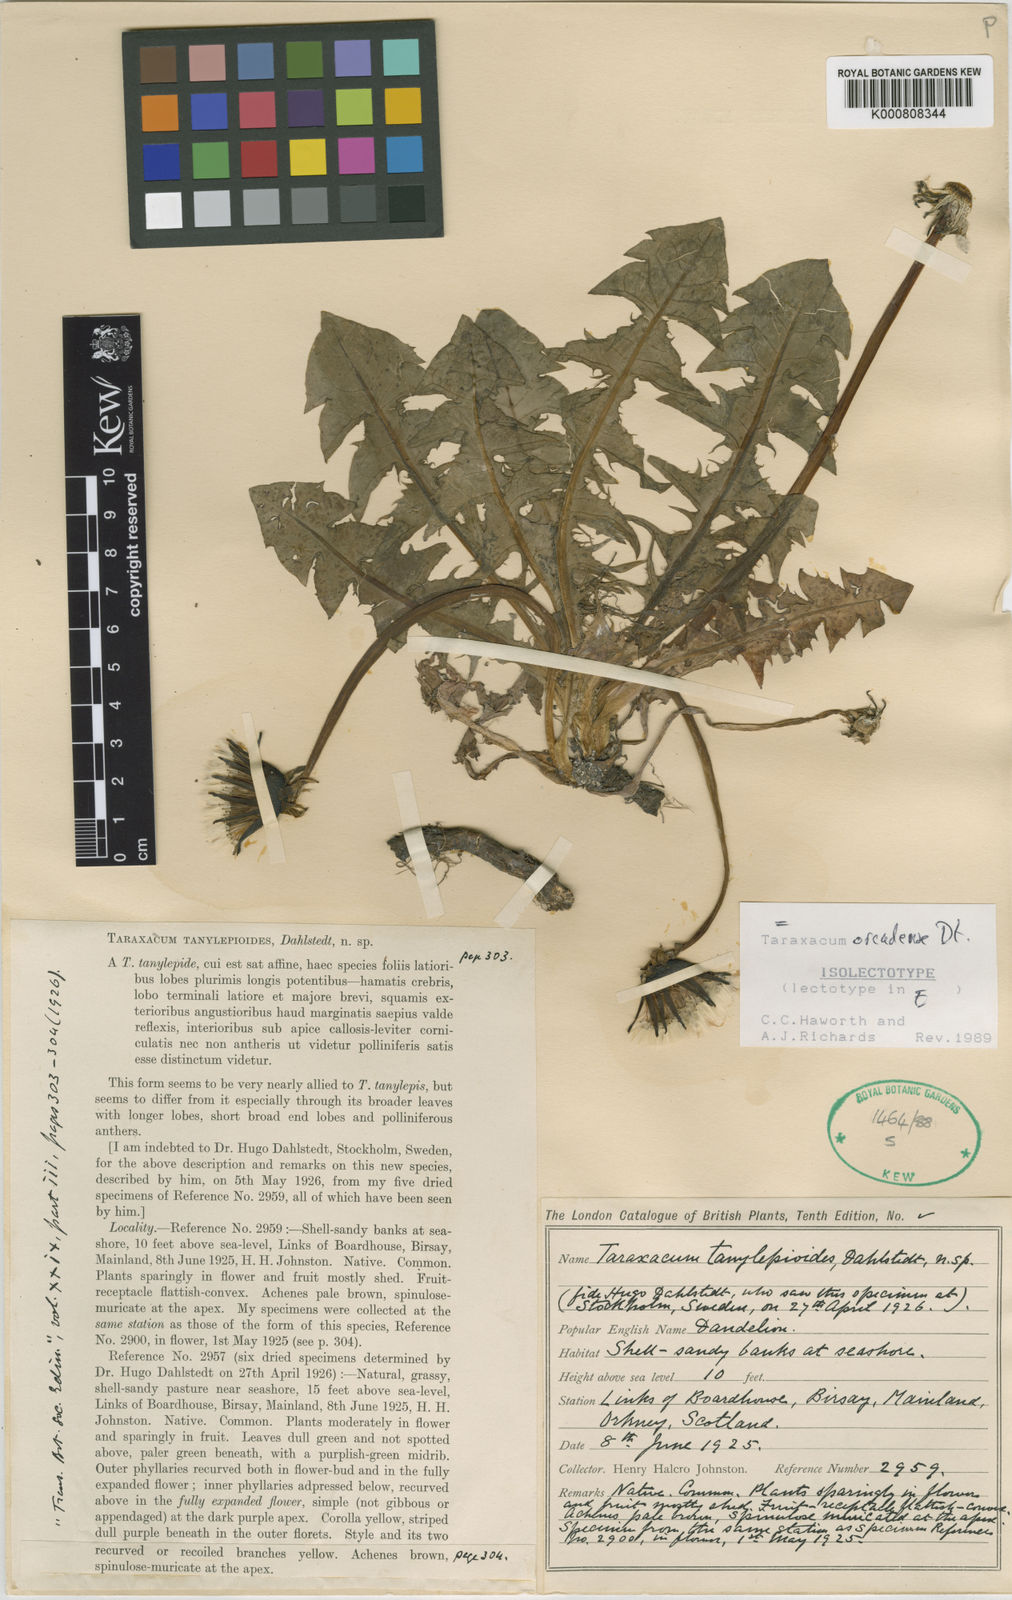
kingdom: Plantae
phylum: Tracheophyta
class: Magnoliopsida
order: Asterales
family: Asteraceae
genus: Taraxacum
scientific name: Taraxacum orcadense
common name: Large-lobed dandelion
